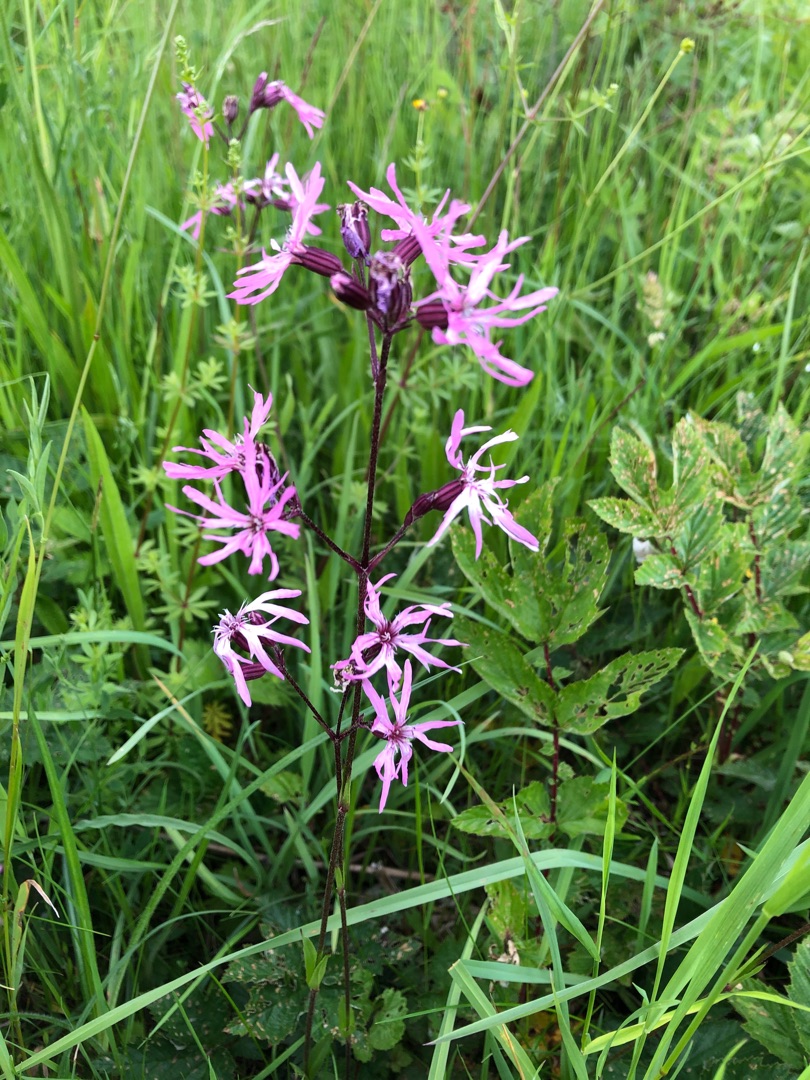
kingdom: Plantae
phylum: Tracheophyta
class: Magnoliopsida
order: Caryophyllales
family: Caryophyllaceae
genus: Silene
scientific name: Silene flos-cuculi
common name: Trævlekrone
